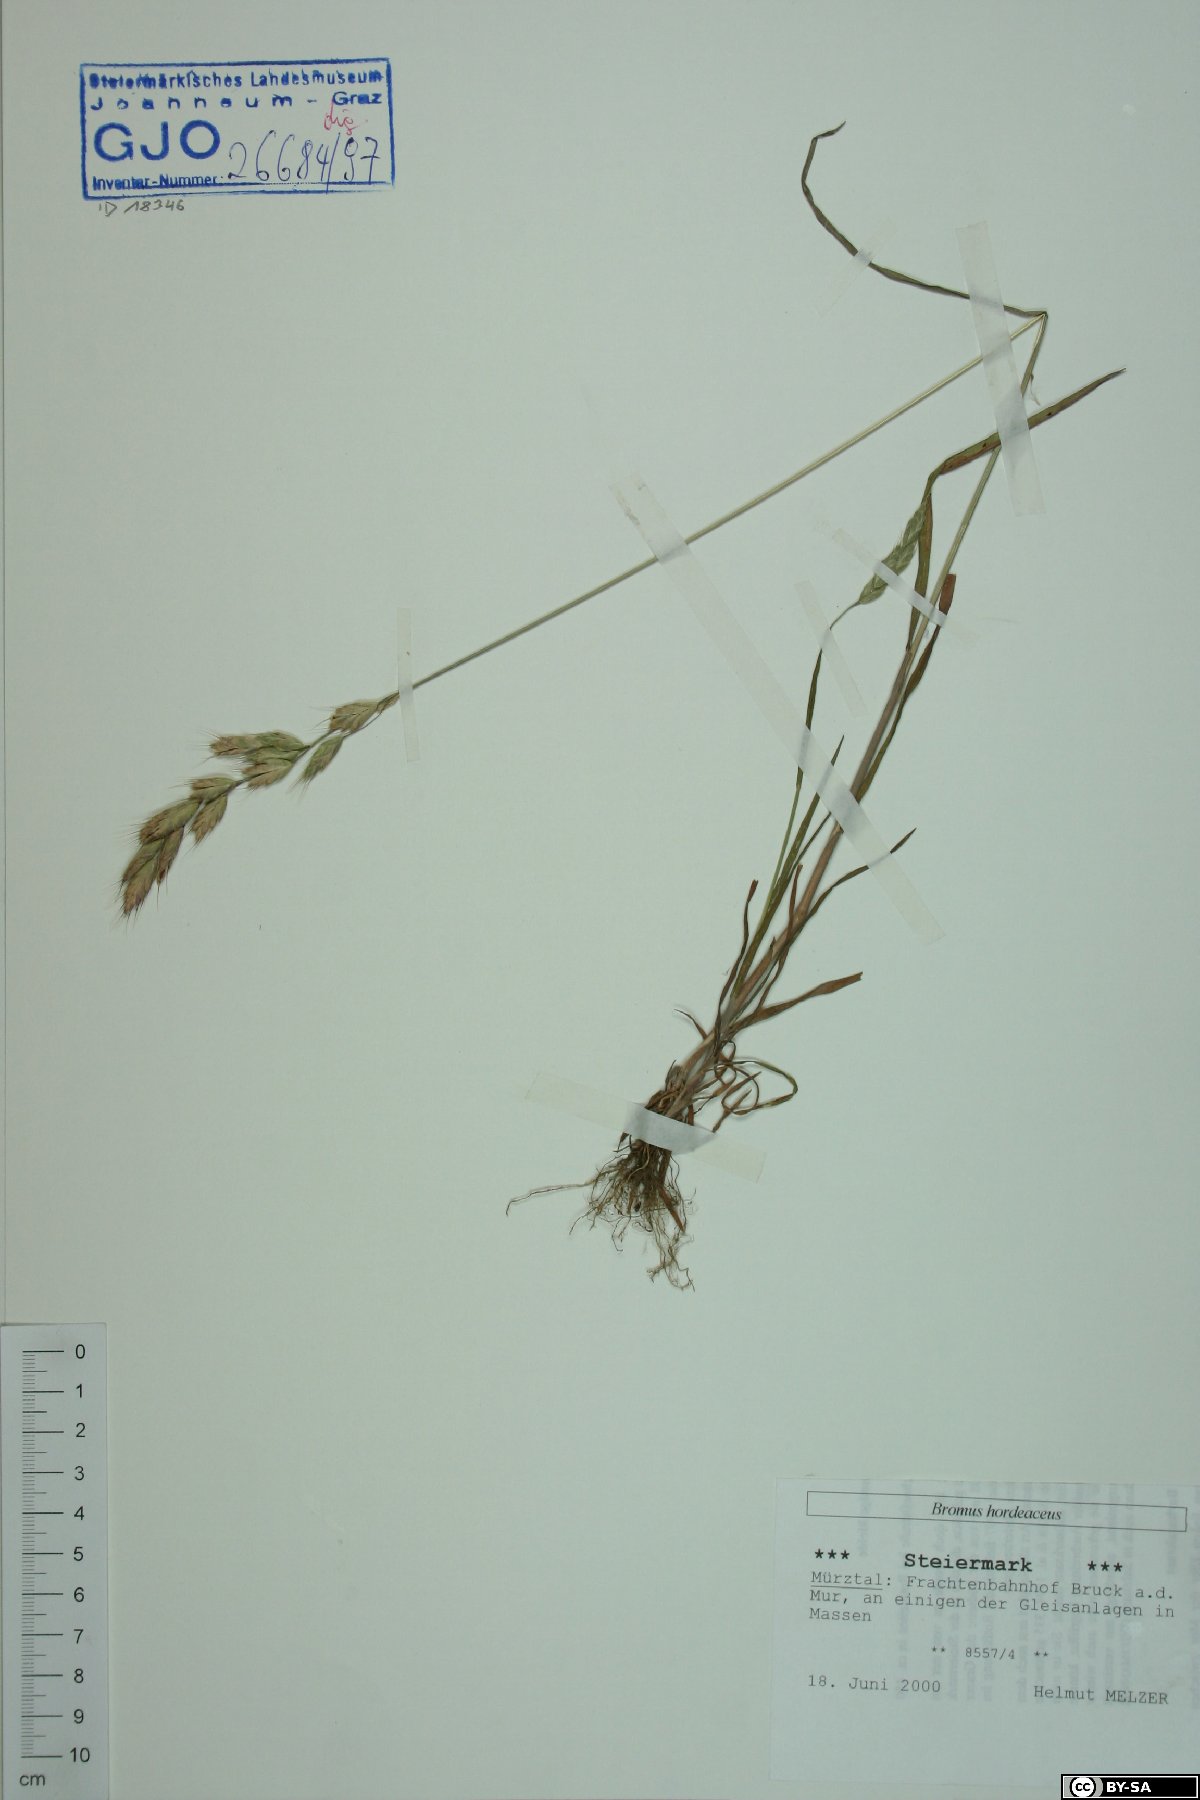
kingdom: Plantae
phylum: Tracheophyta
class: Liliopsida
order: Poales
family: Poaceae
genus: Bromus
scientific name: Bromus hordeaceus
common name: Soft brome
